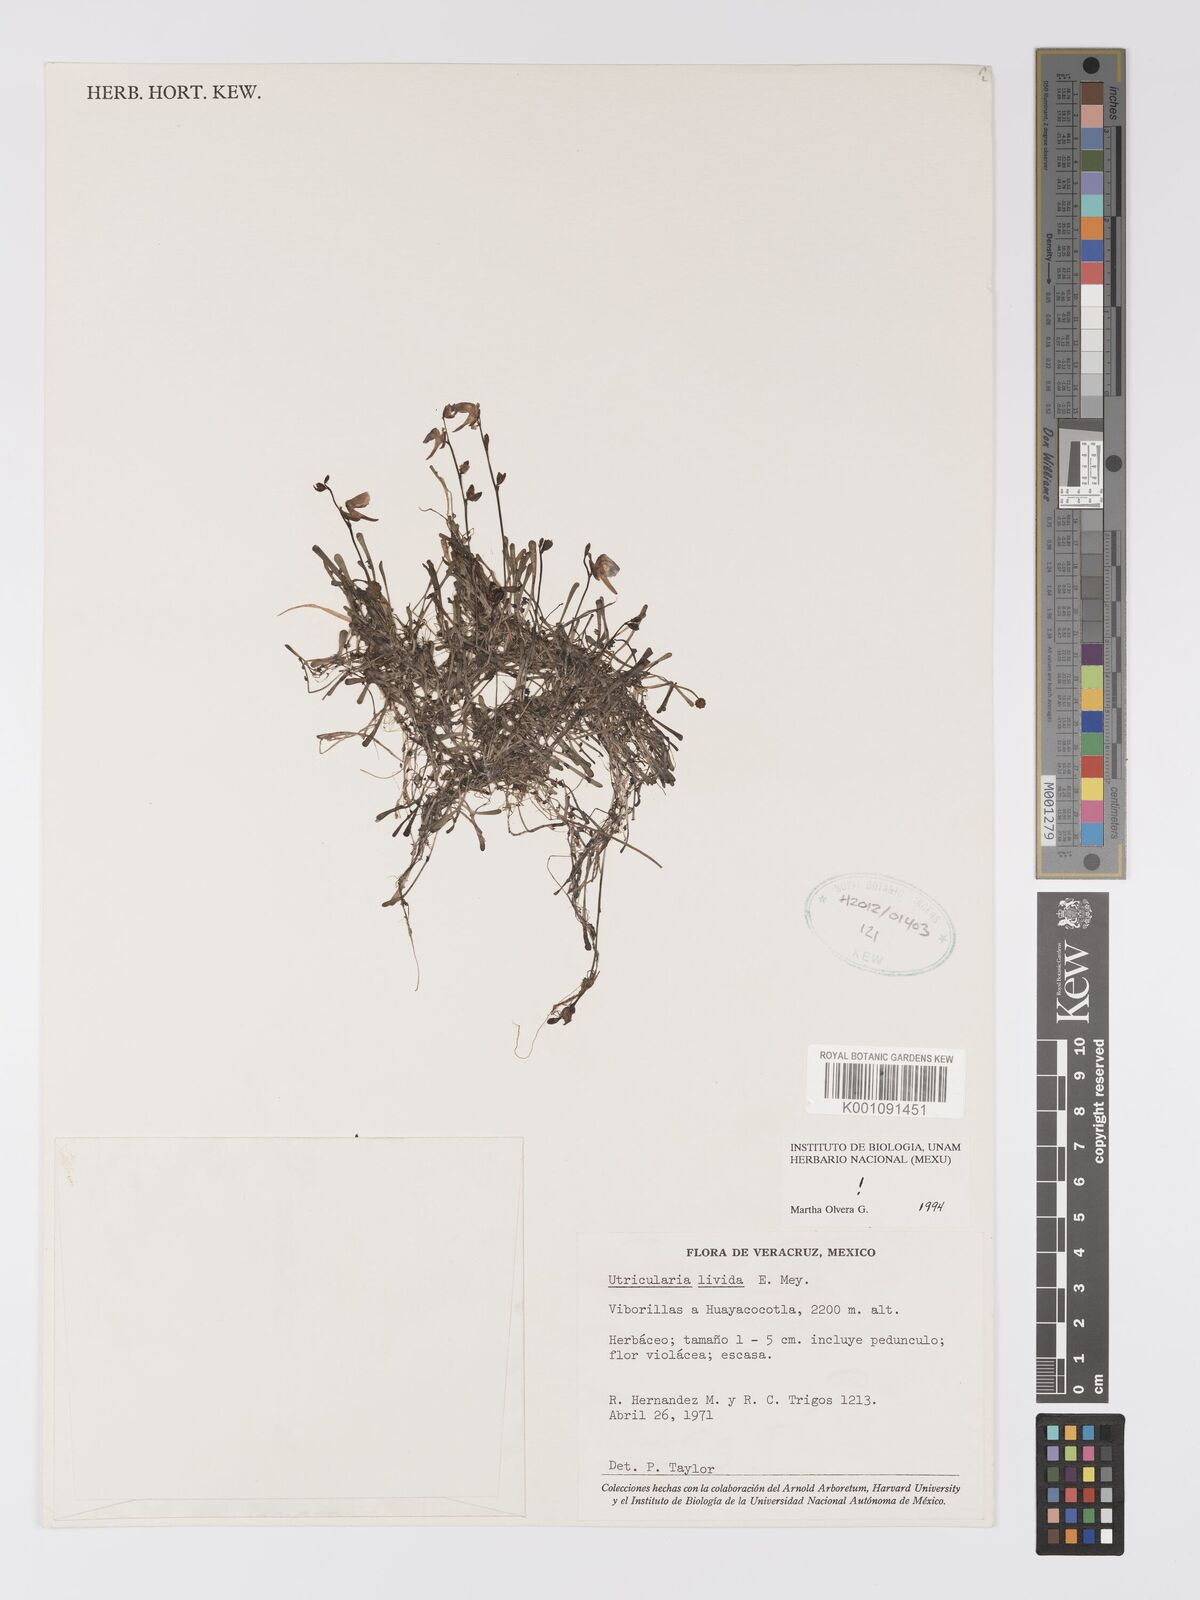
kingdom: Plantae
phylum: Tracheophyta
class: Magnoliopsida
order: Lamiales
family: Lentibulariaceae
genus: Utricularia
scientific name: Utricularia livida
